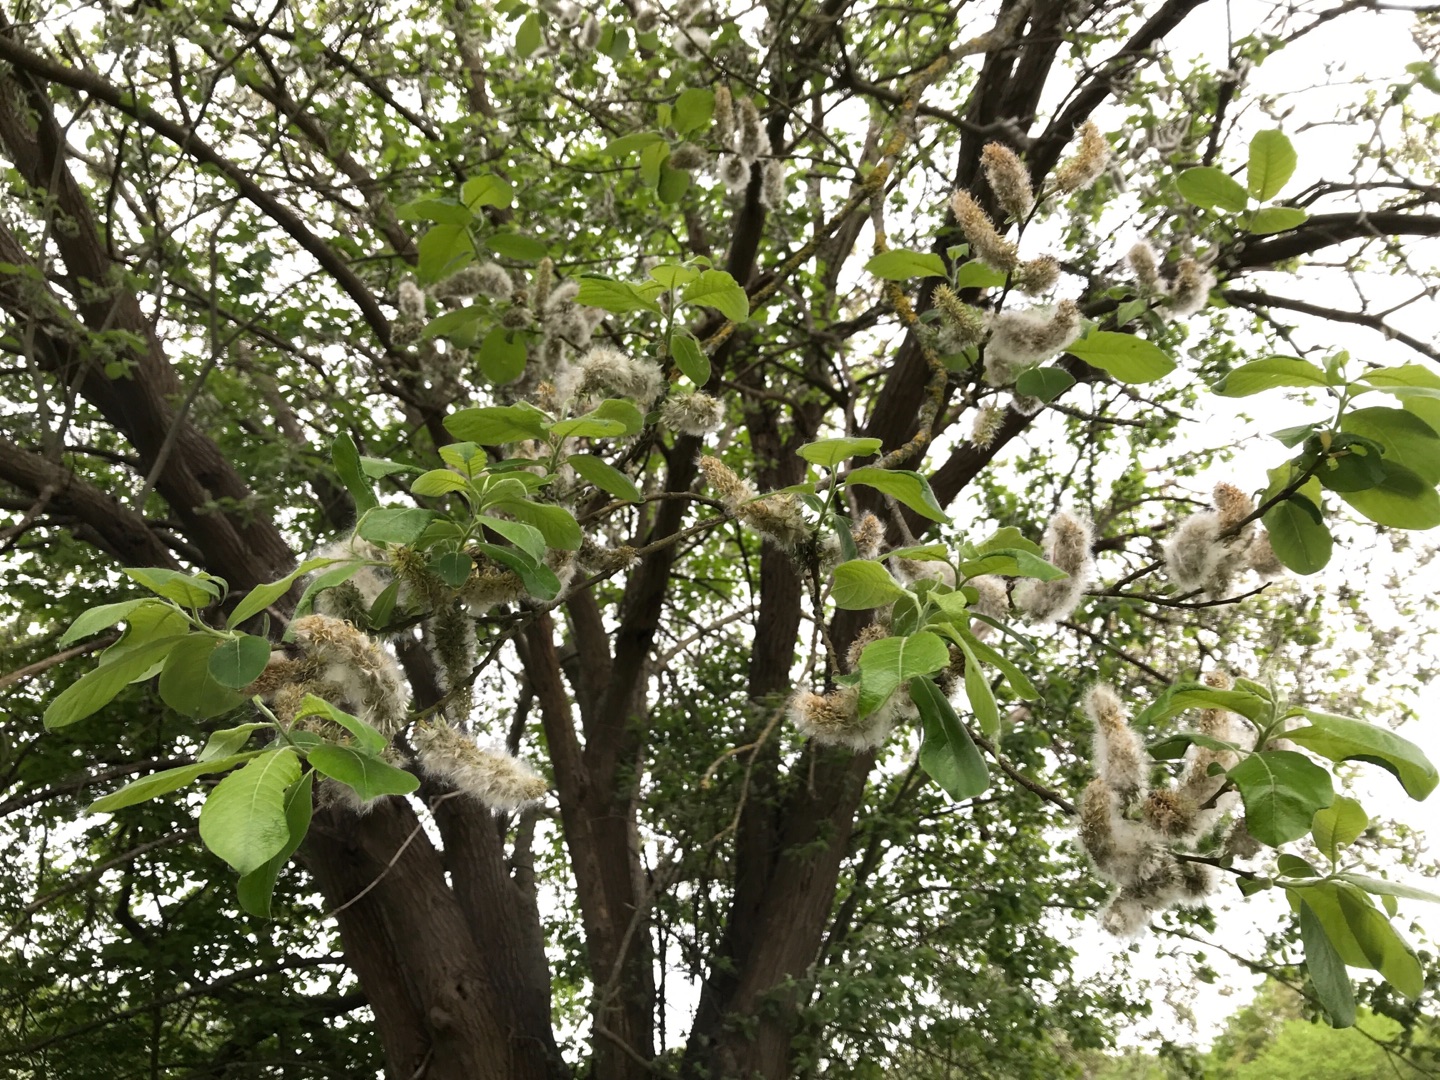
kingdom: Plantae
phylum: Tracheophyta
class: Magnoliopsida
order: Malpighiales
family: Salicaceae
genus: Salix
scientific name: Salix caprea
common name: Selje-pil
